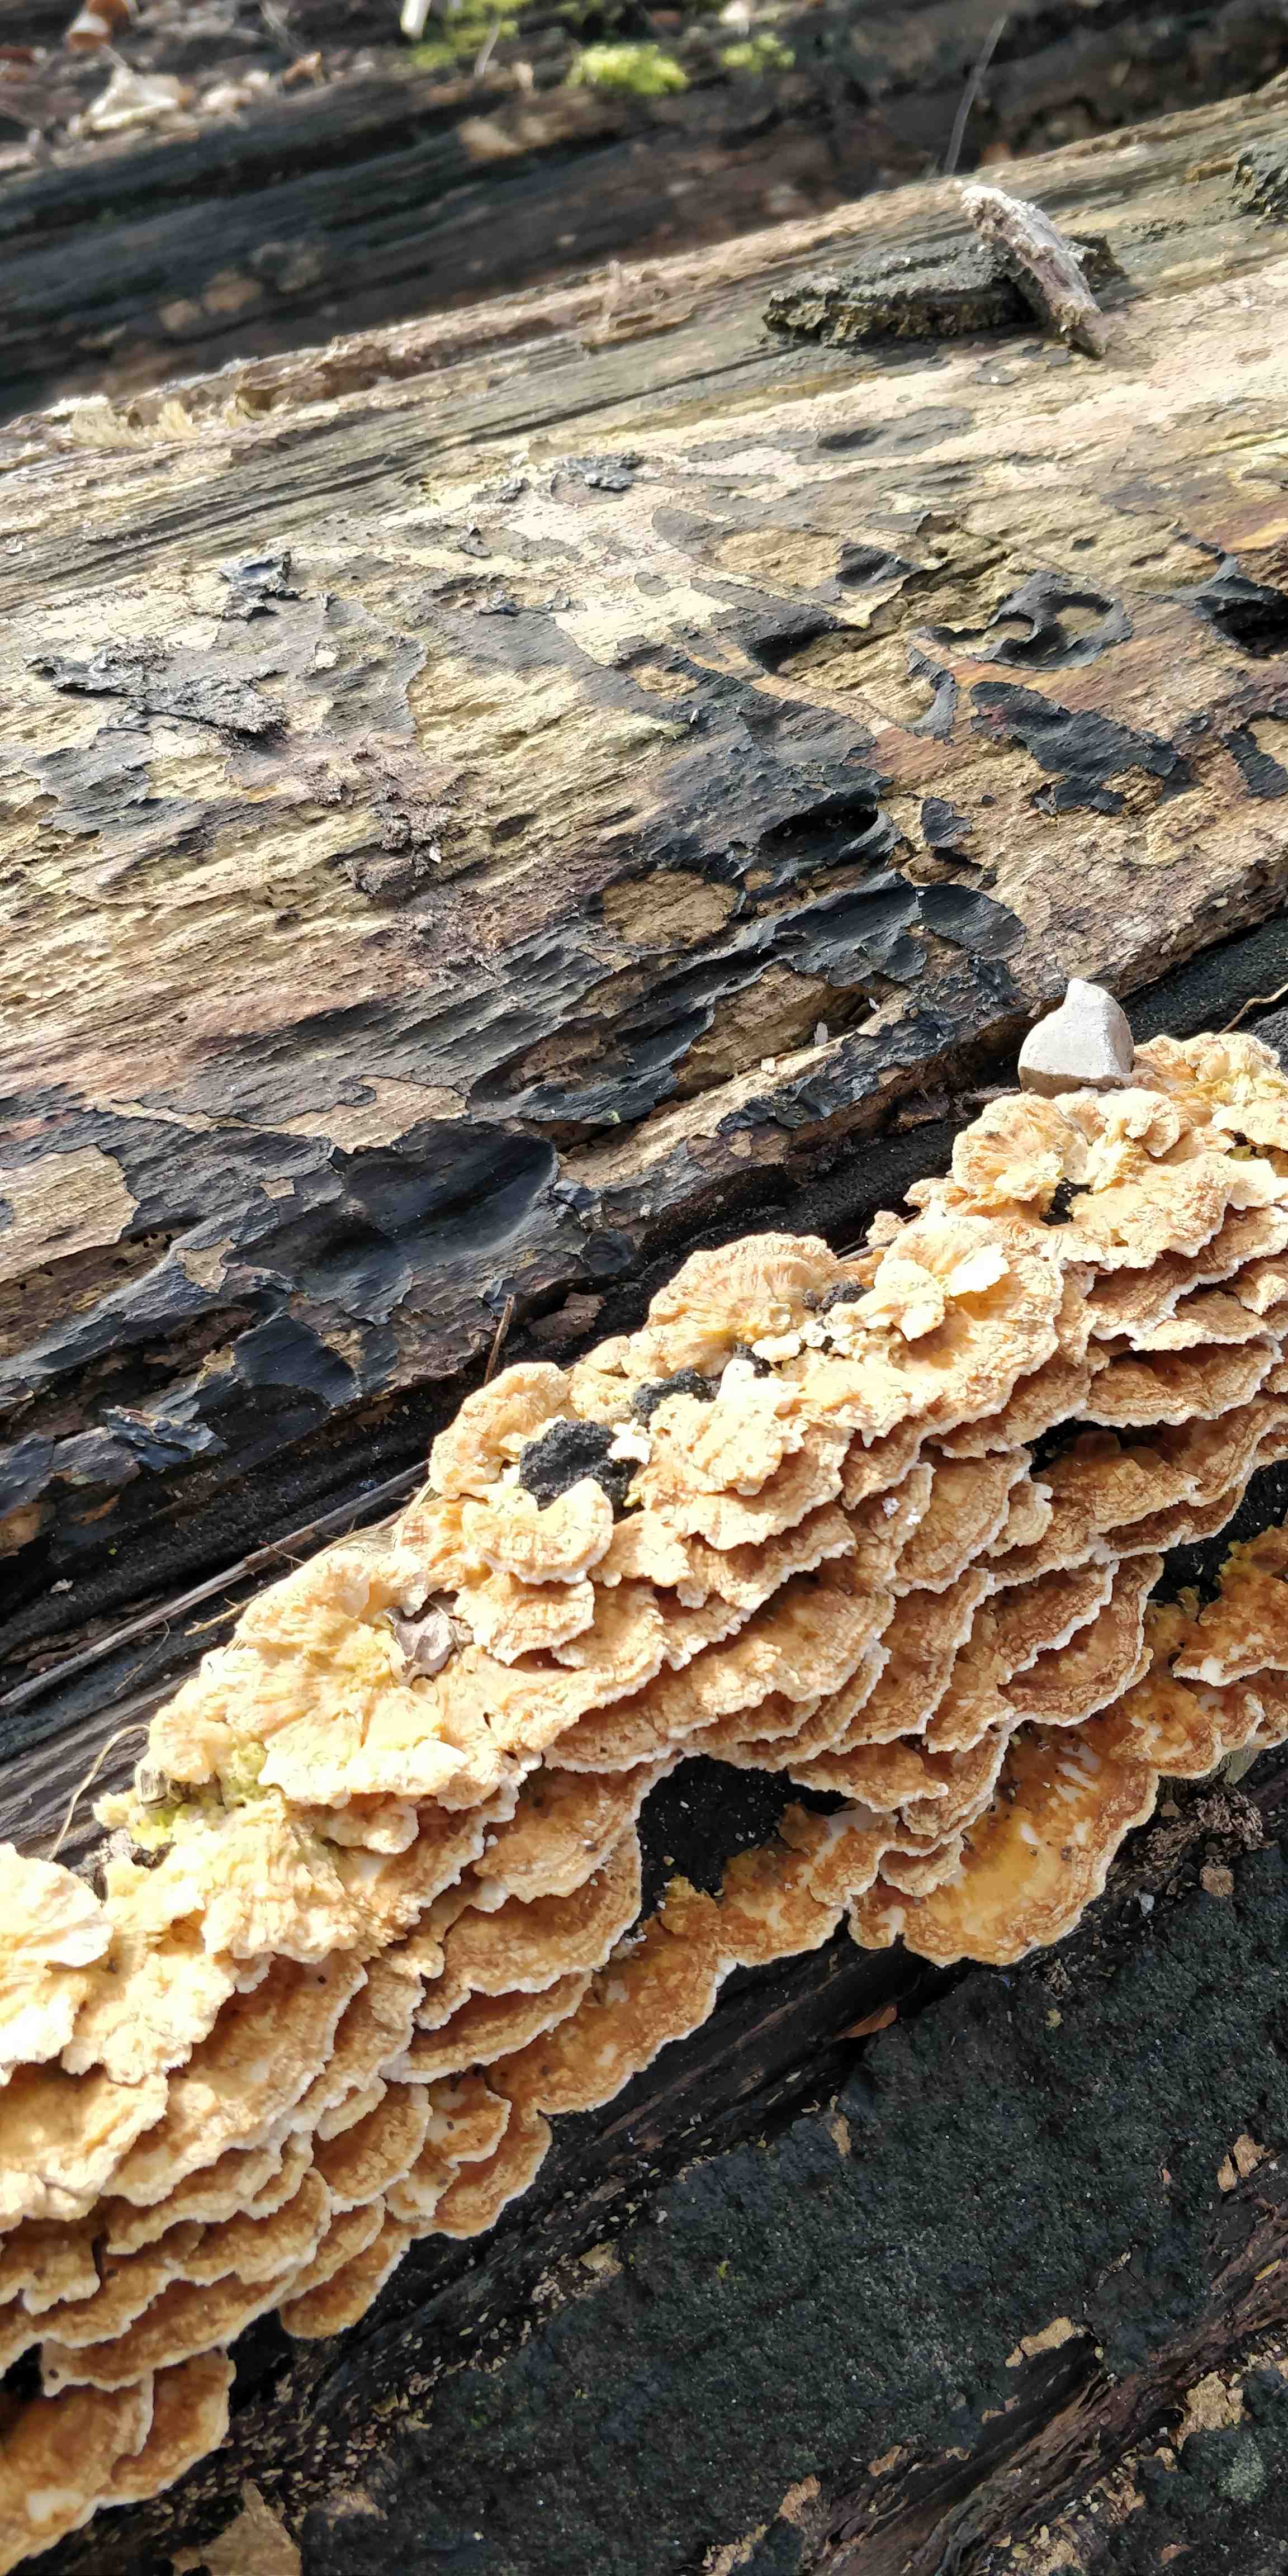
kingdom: Fungi
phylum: Basidiomycota
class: Agaricomycetes
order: Polyporales
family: Polyporaceae
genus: Trametes
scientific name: Trametes ochracea
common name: bæltet læderporesvamp
